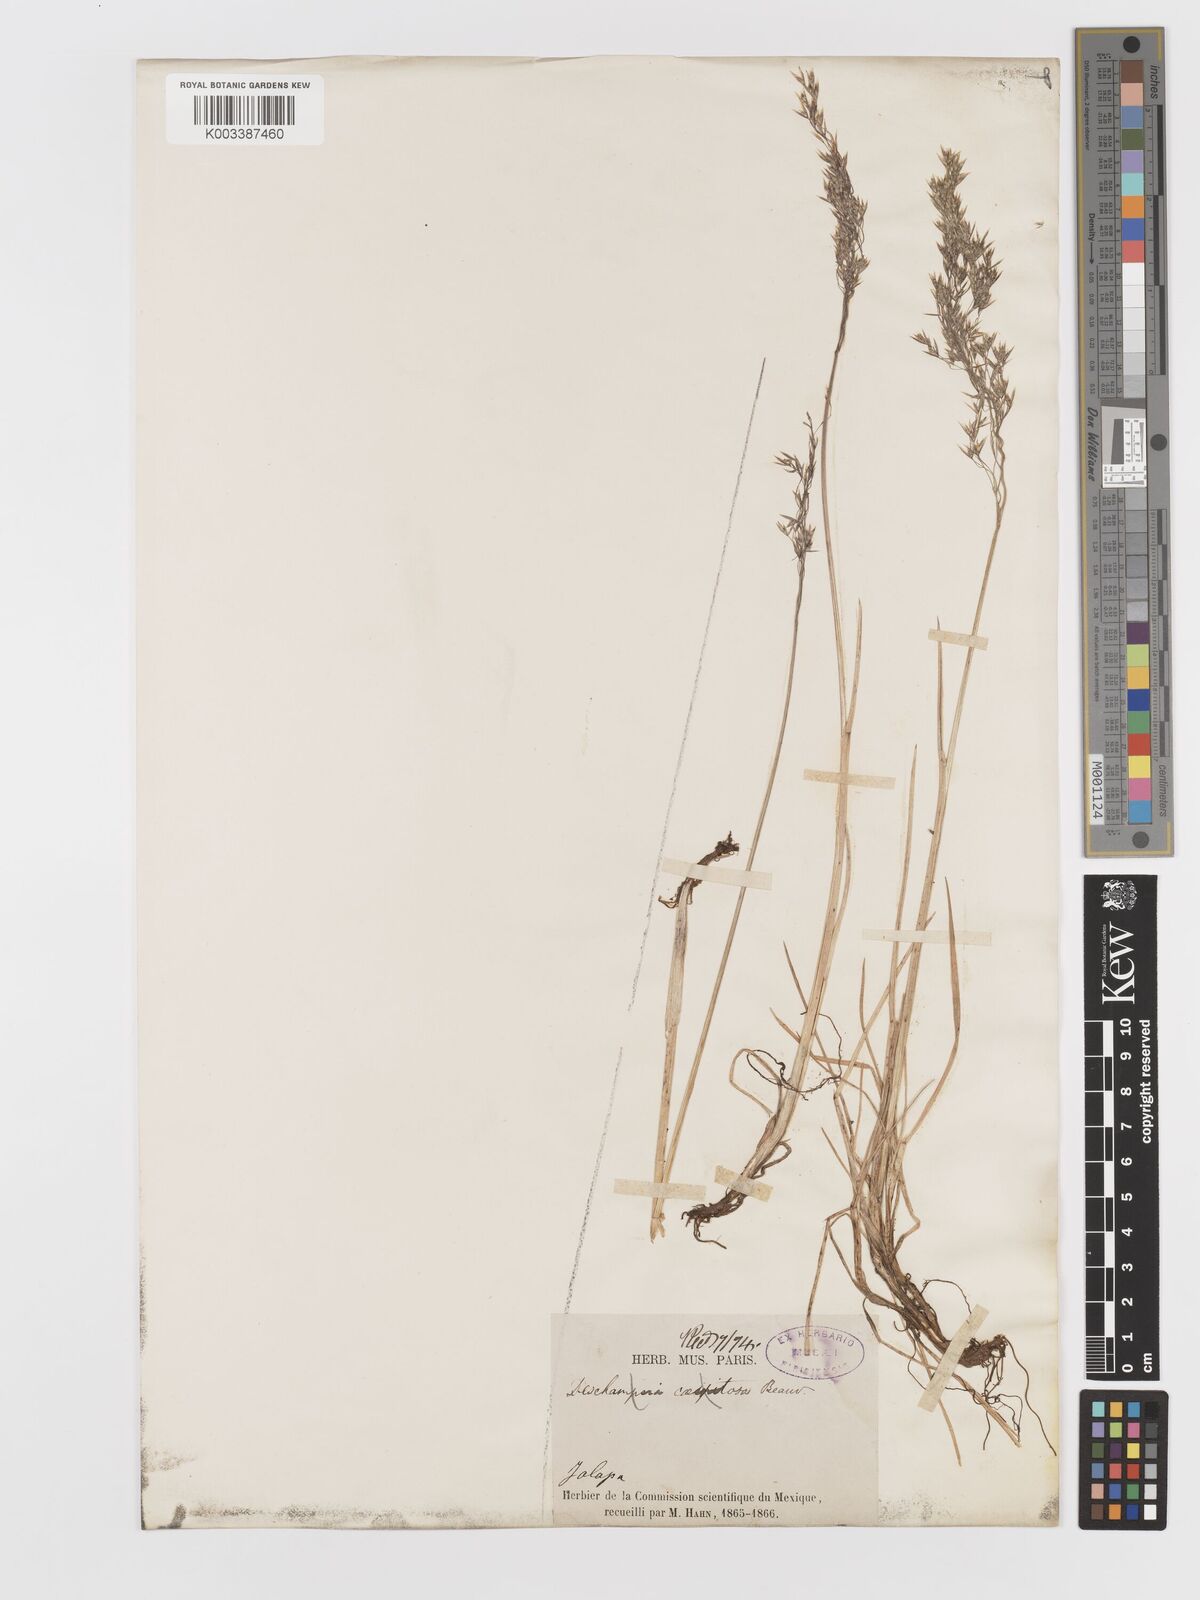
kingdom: Plantae
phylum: Tracheophyta
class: Liliopsida
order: Poales
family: Poaceae
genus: Deschampsia
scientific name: Deschampsia
